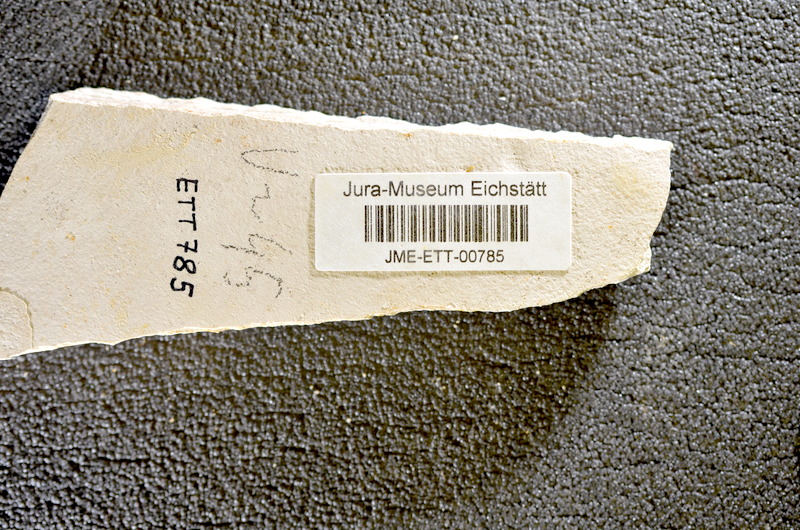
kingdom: Animalia
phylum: Chordata
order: Salmoniformes
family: Orthogonikleithridae
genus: Orthogonikleithrus
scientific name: Orthogonikleithrus hoelli
